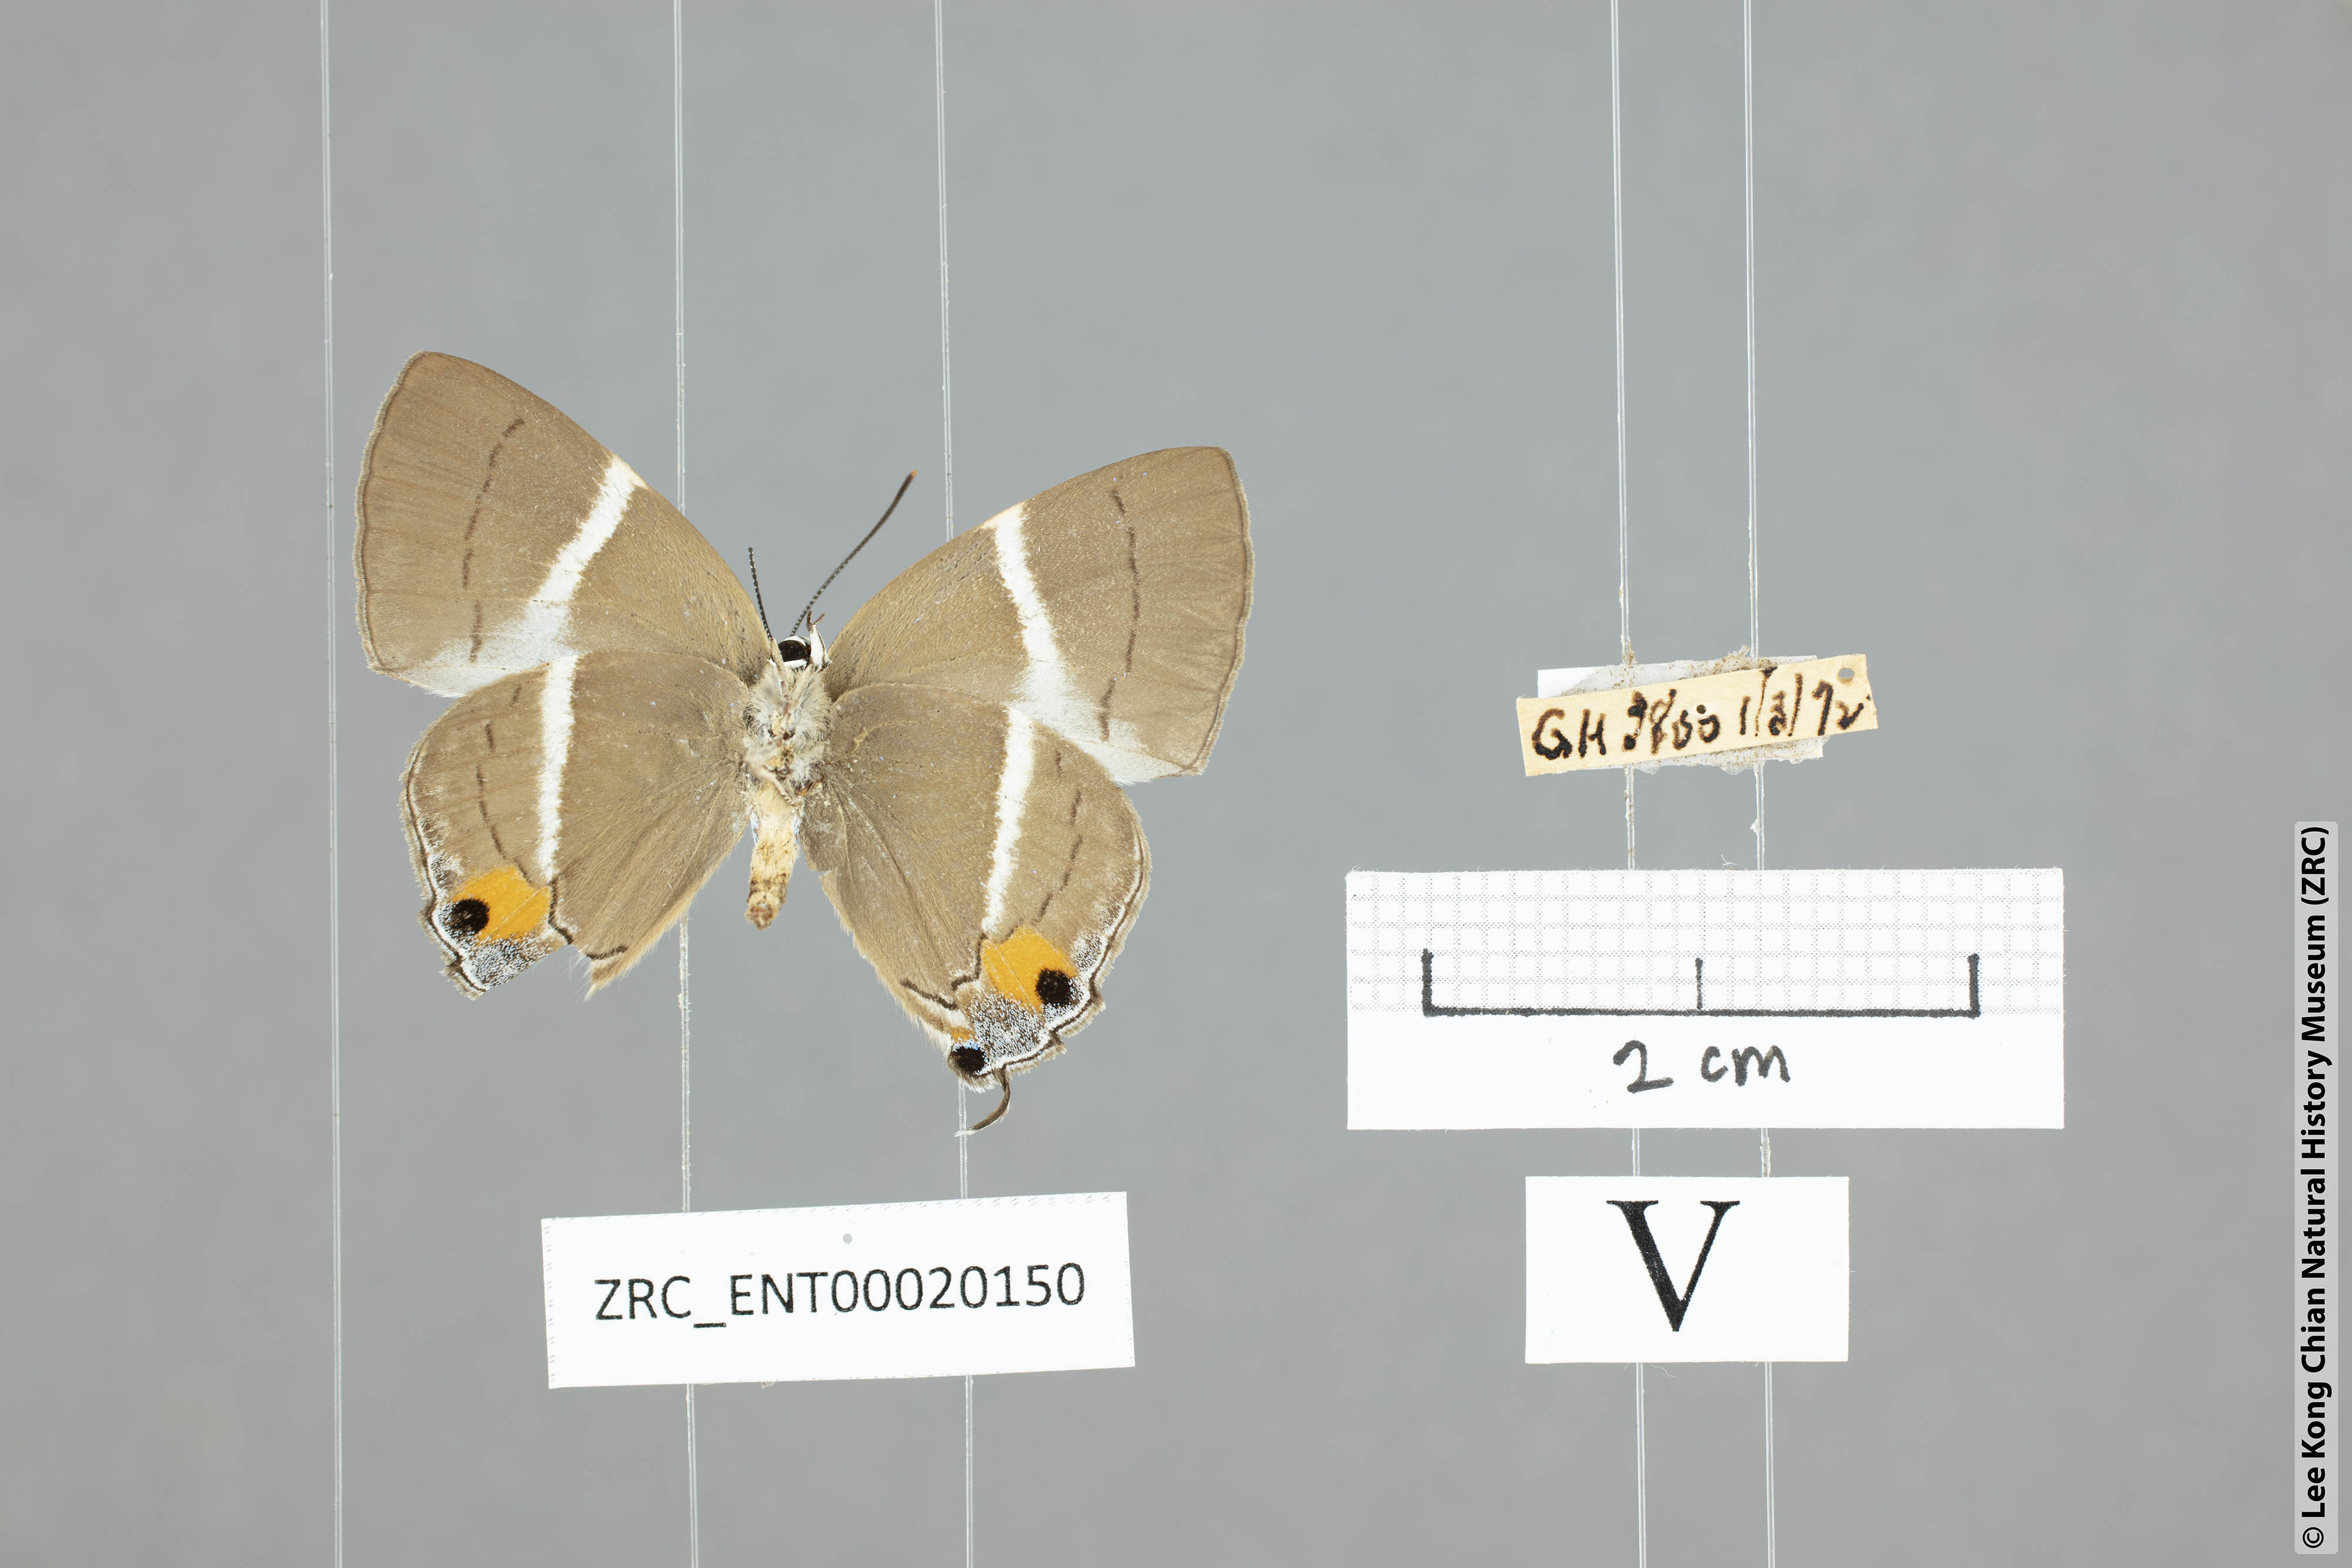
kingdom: Animalia
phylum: Arthropoda
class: Insecta
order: Lepidoptera
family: Lycaenidae
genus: Dacalana
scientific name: Dacalana
